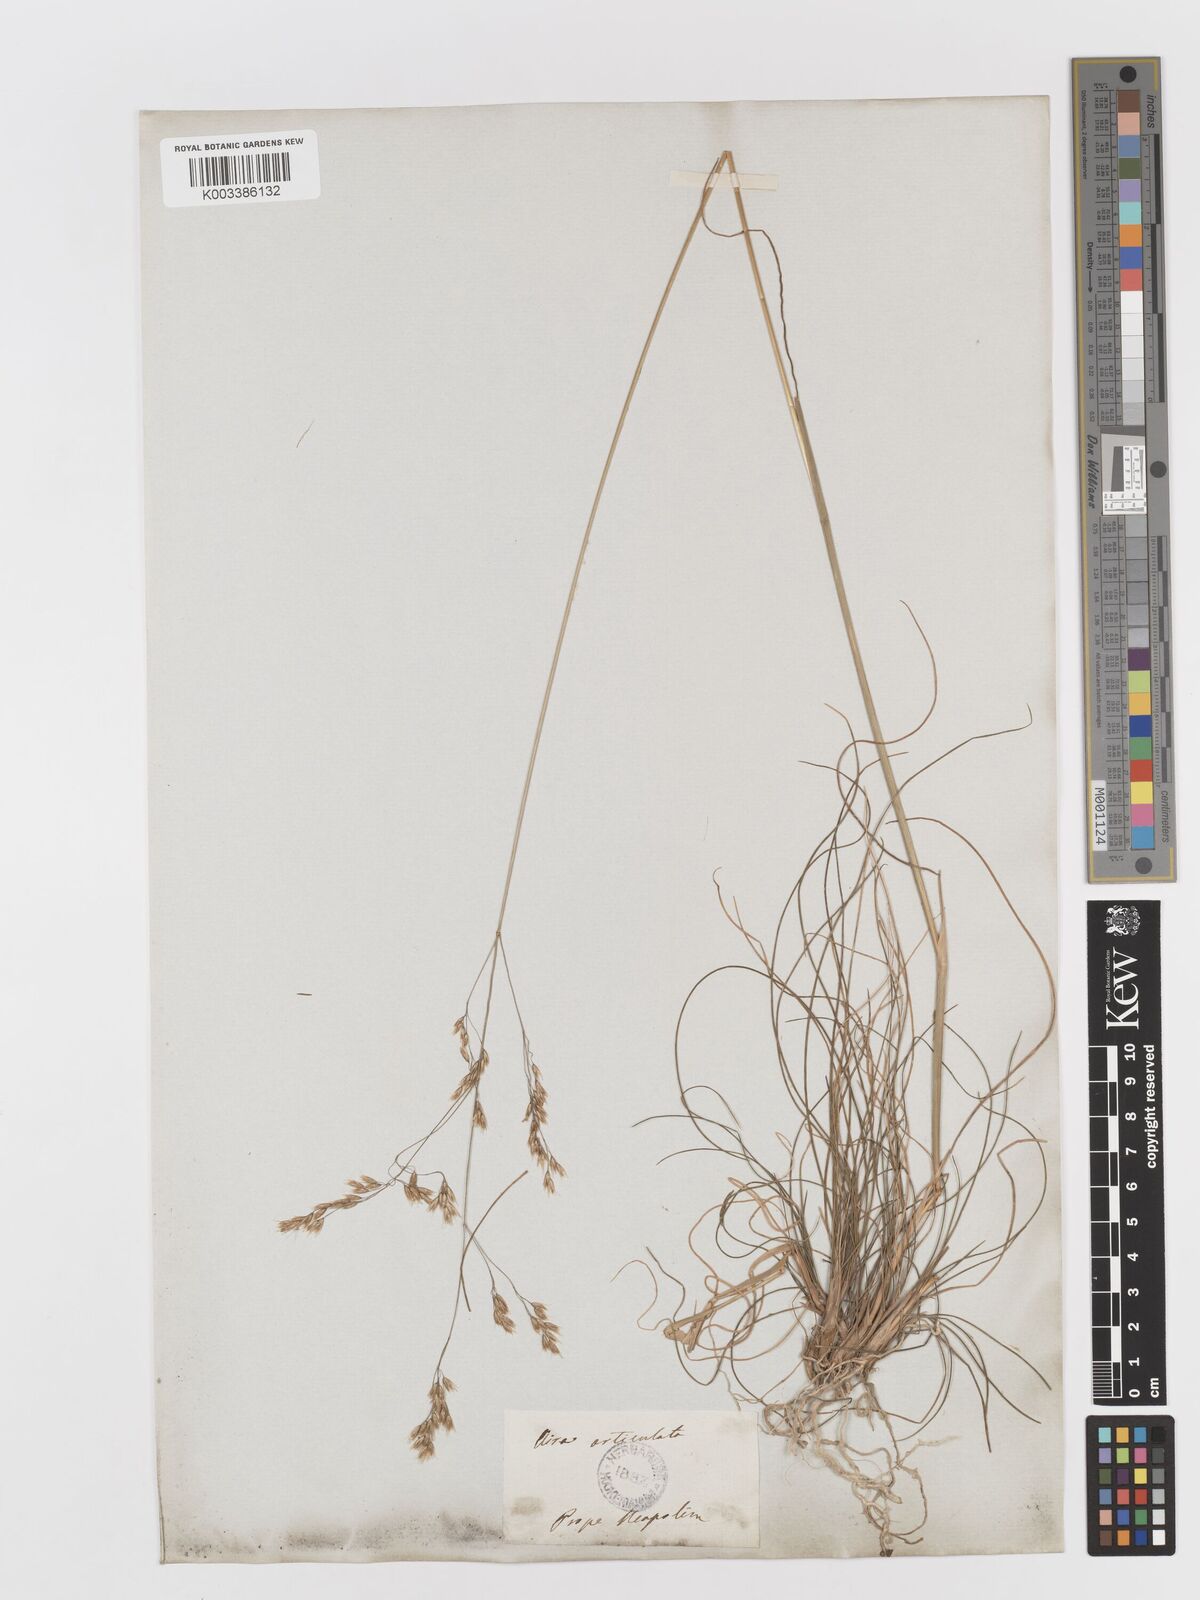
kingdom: Plantae
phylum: Tracheophyta
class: Liliopsida
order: Poales
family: Poaceae
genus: Avenella
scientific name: Avenella flexuosa
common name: Wavy hairgrass
